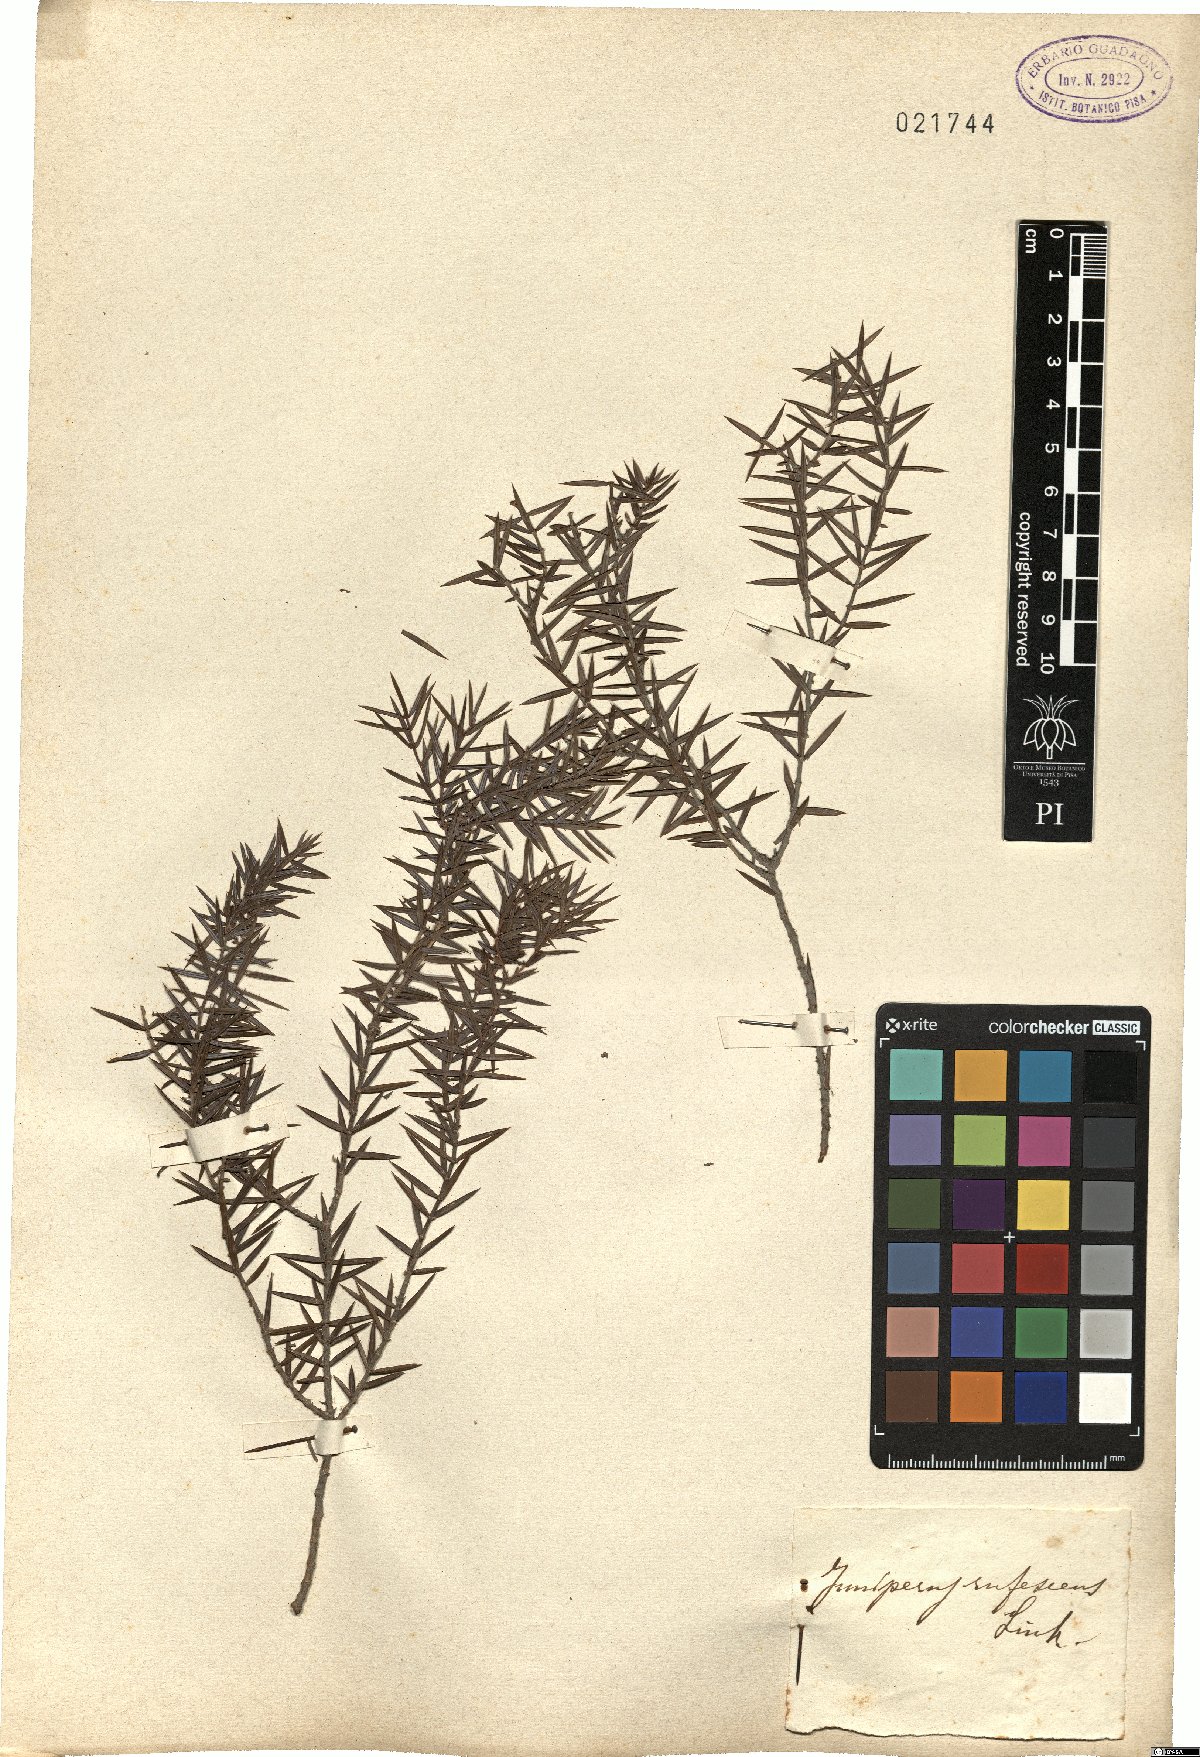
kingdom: Plantae
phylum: Tracheophyta
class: Pinopsida
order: Pinales
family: Cupressaceae
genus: Juniperus
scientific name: Juniperus oxycedrus
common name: Prickly juniper
